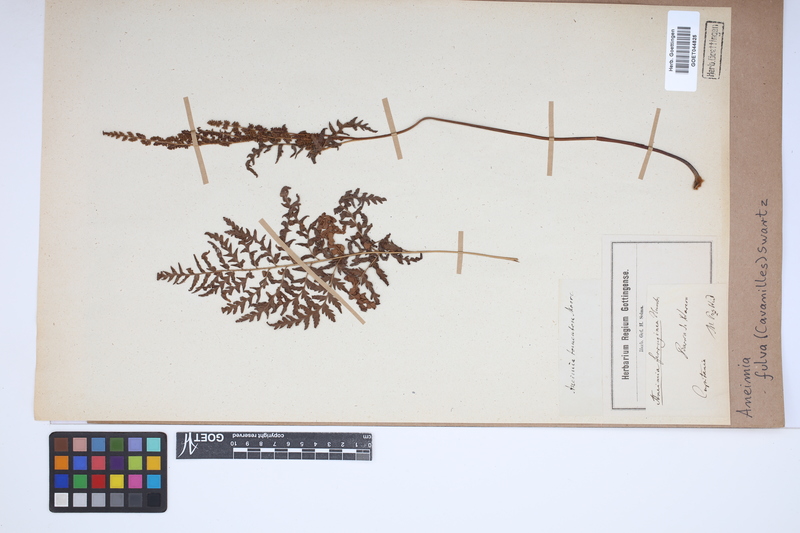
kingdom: Plantae
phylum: Tracheophyta
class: Polypodiopsida
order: Schizaeales
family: Anemiaceae
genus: Anemia
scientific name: Anemia ferruginea
